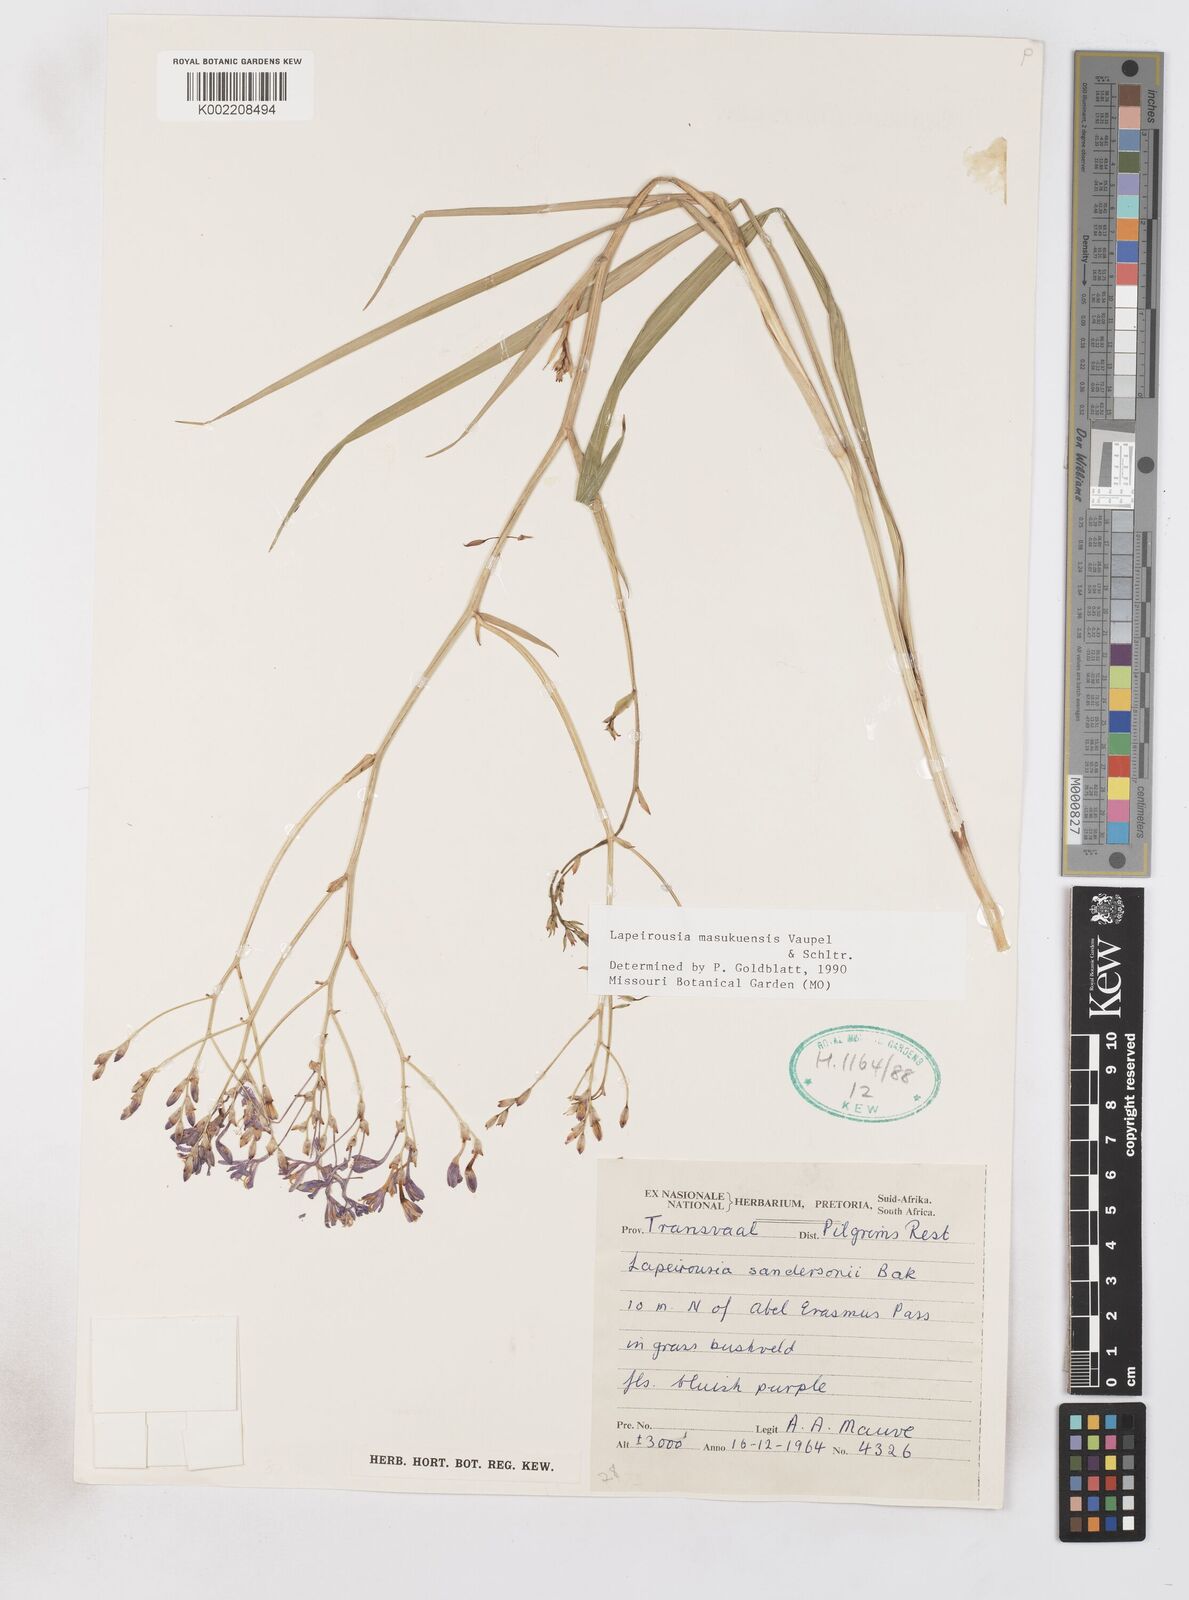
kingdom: Plantae
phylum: Tracheophyta
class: Liliopsida
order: Asparagales
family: Iridaceae
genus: Afrosolen
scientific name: Afrosolen masukuensis
